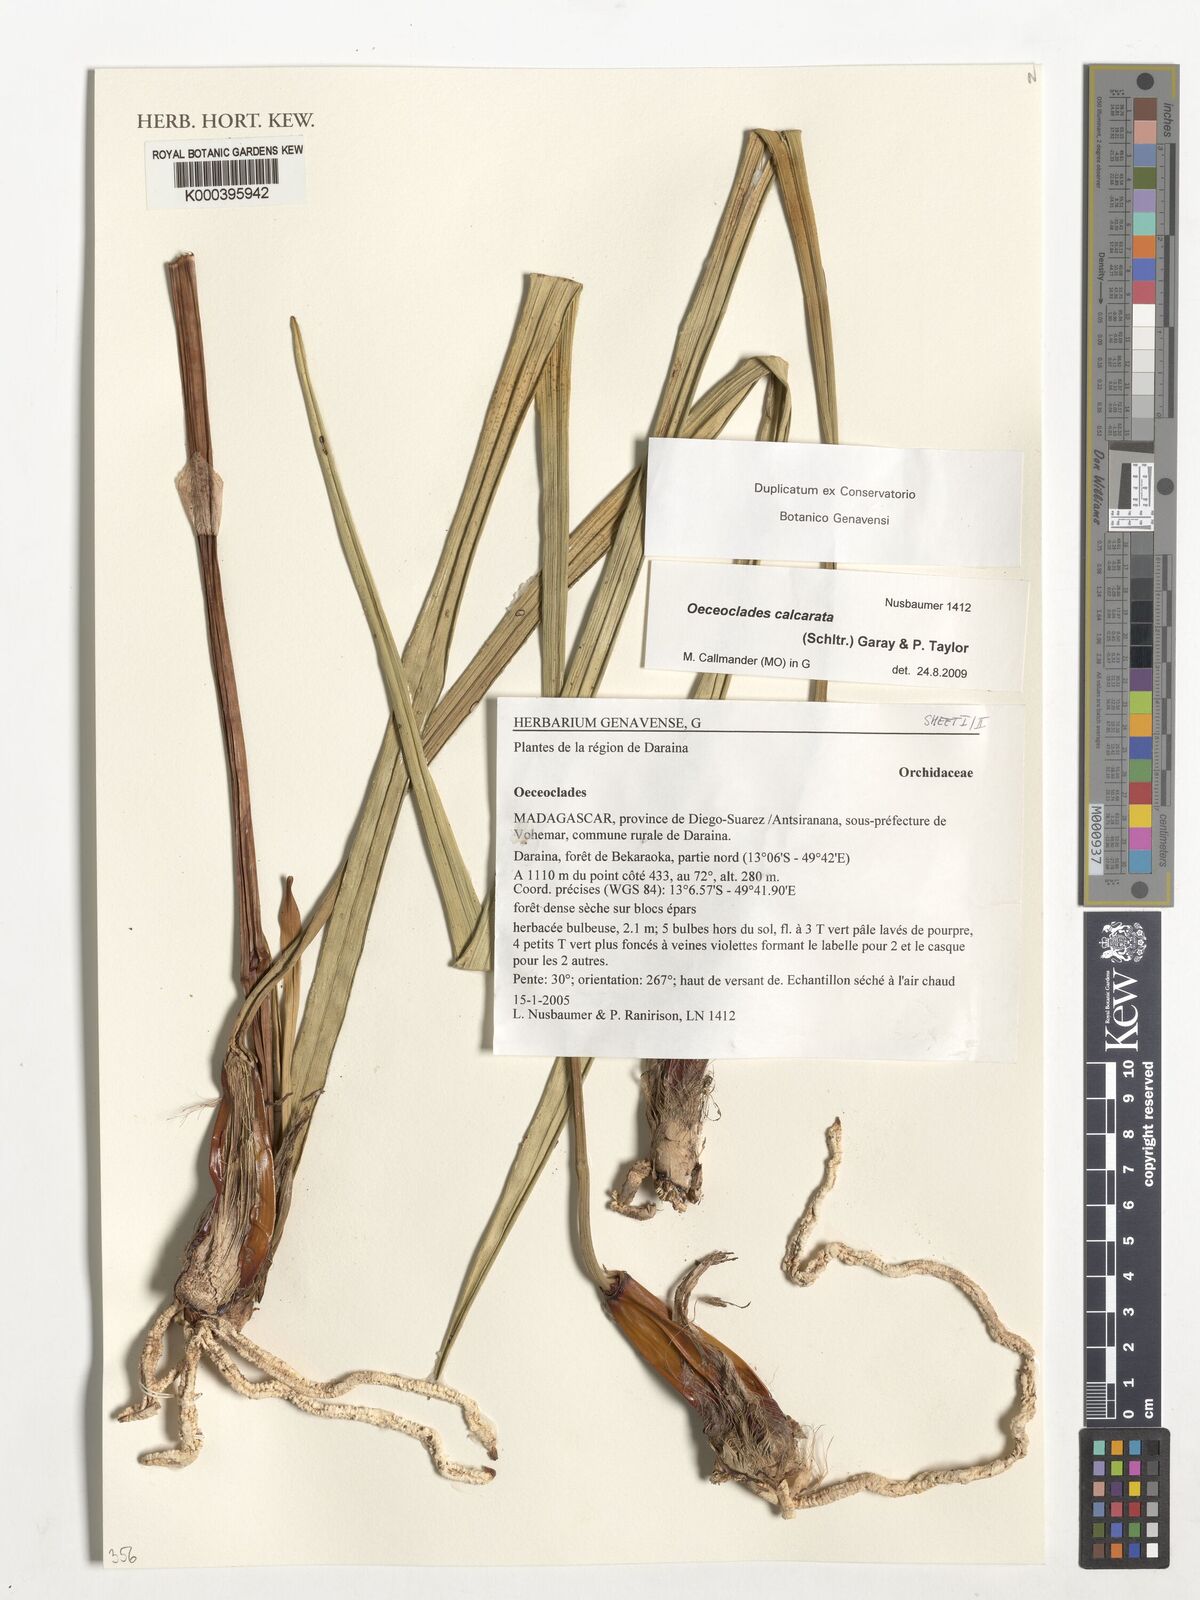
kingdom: Plantae
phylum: Tracheophyta
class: Liliopsida
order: Asparagales
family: Orchidaceae
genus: Eulophia
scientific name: Eulophia calcarata
